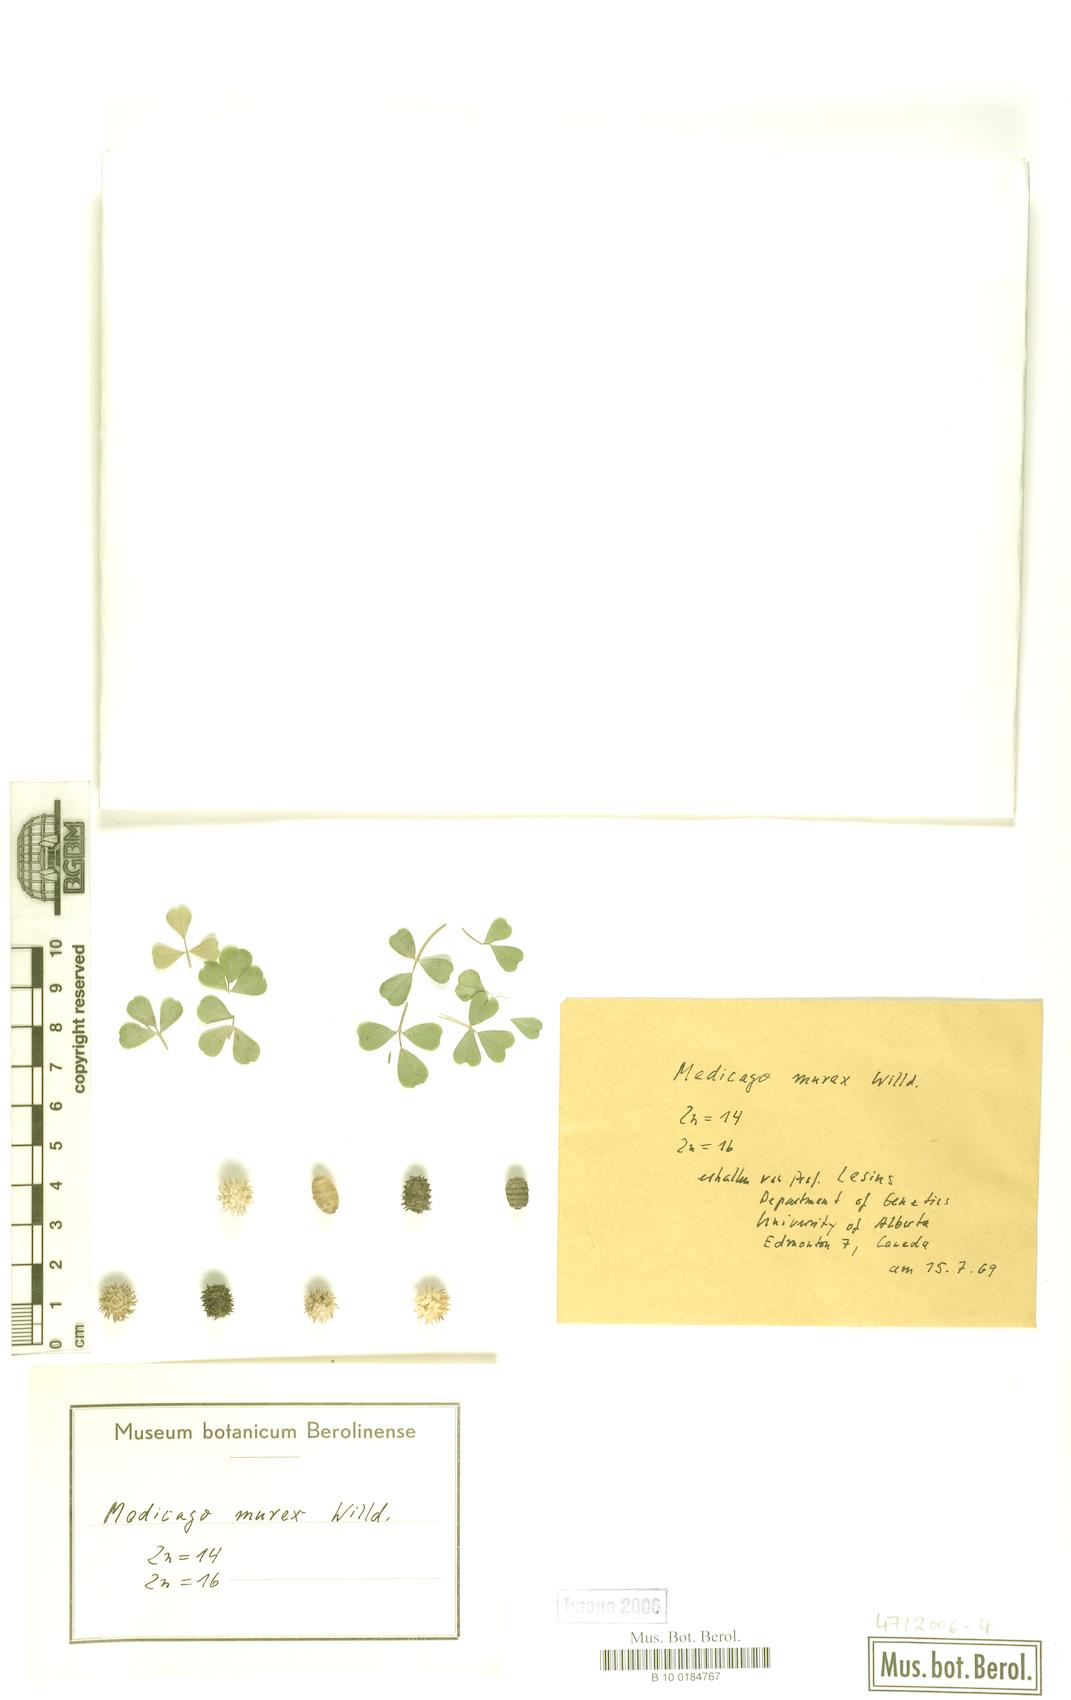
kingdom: Plantae
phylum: Tracheophyta
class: Magnoliopsida
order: Fabales
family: Fabaceae
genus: Medicago
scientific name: Medicago murex
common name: Murex
